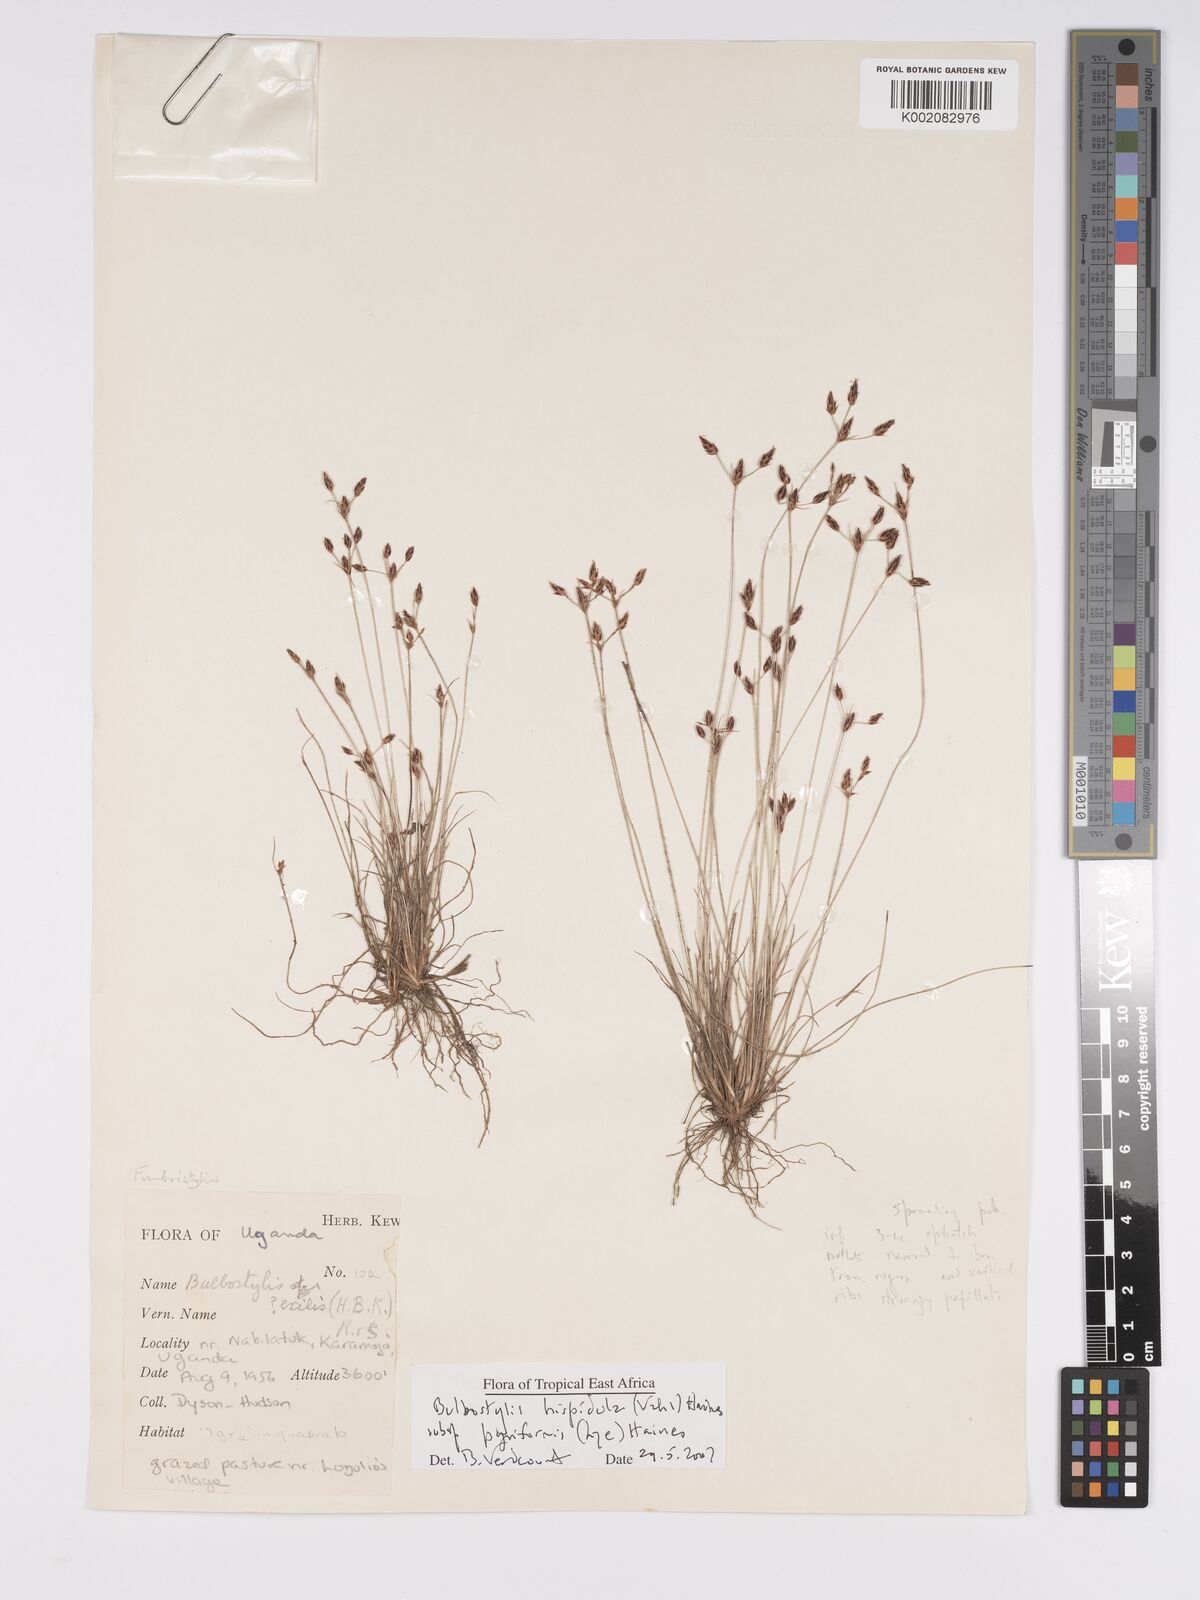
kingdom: Plantae
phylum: Tracheophyta
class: Liliopsida
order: Poales
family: Cyperaceae
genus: Bulbostylis
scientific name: Bulbostylis hispidula
